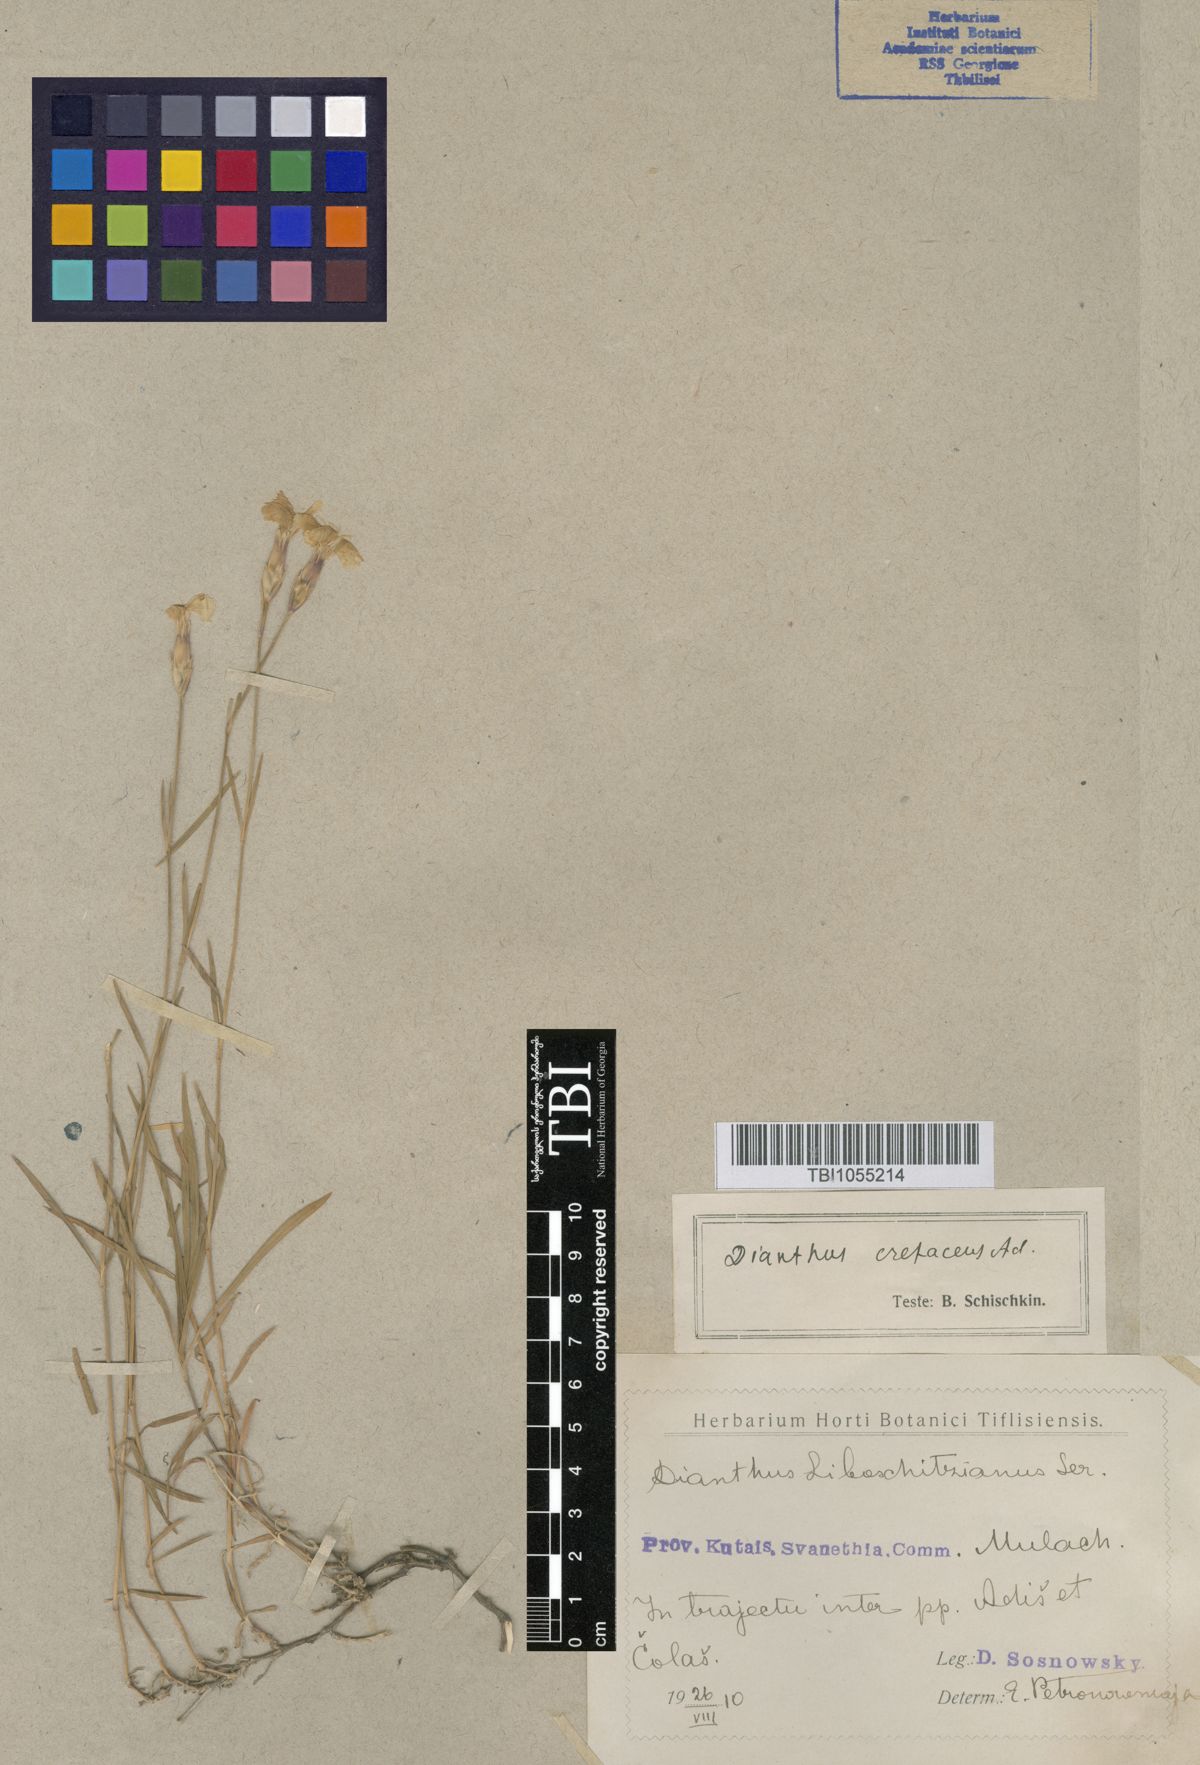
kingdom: Plantae
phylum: Tracheophyta
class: Magnoliopsida
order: Caryophyllales
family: Caryophyllaceae
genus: Dianthus
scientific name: Dianthus cretaceus
